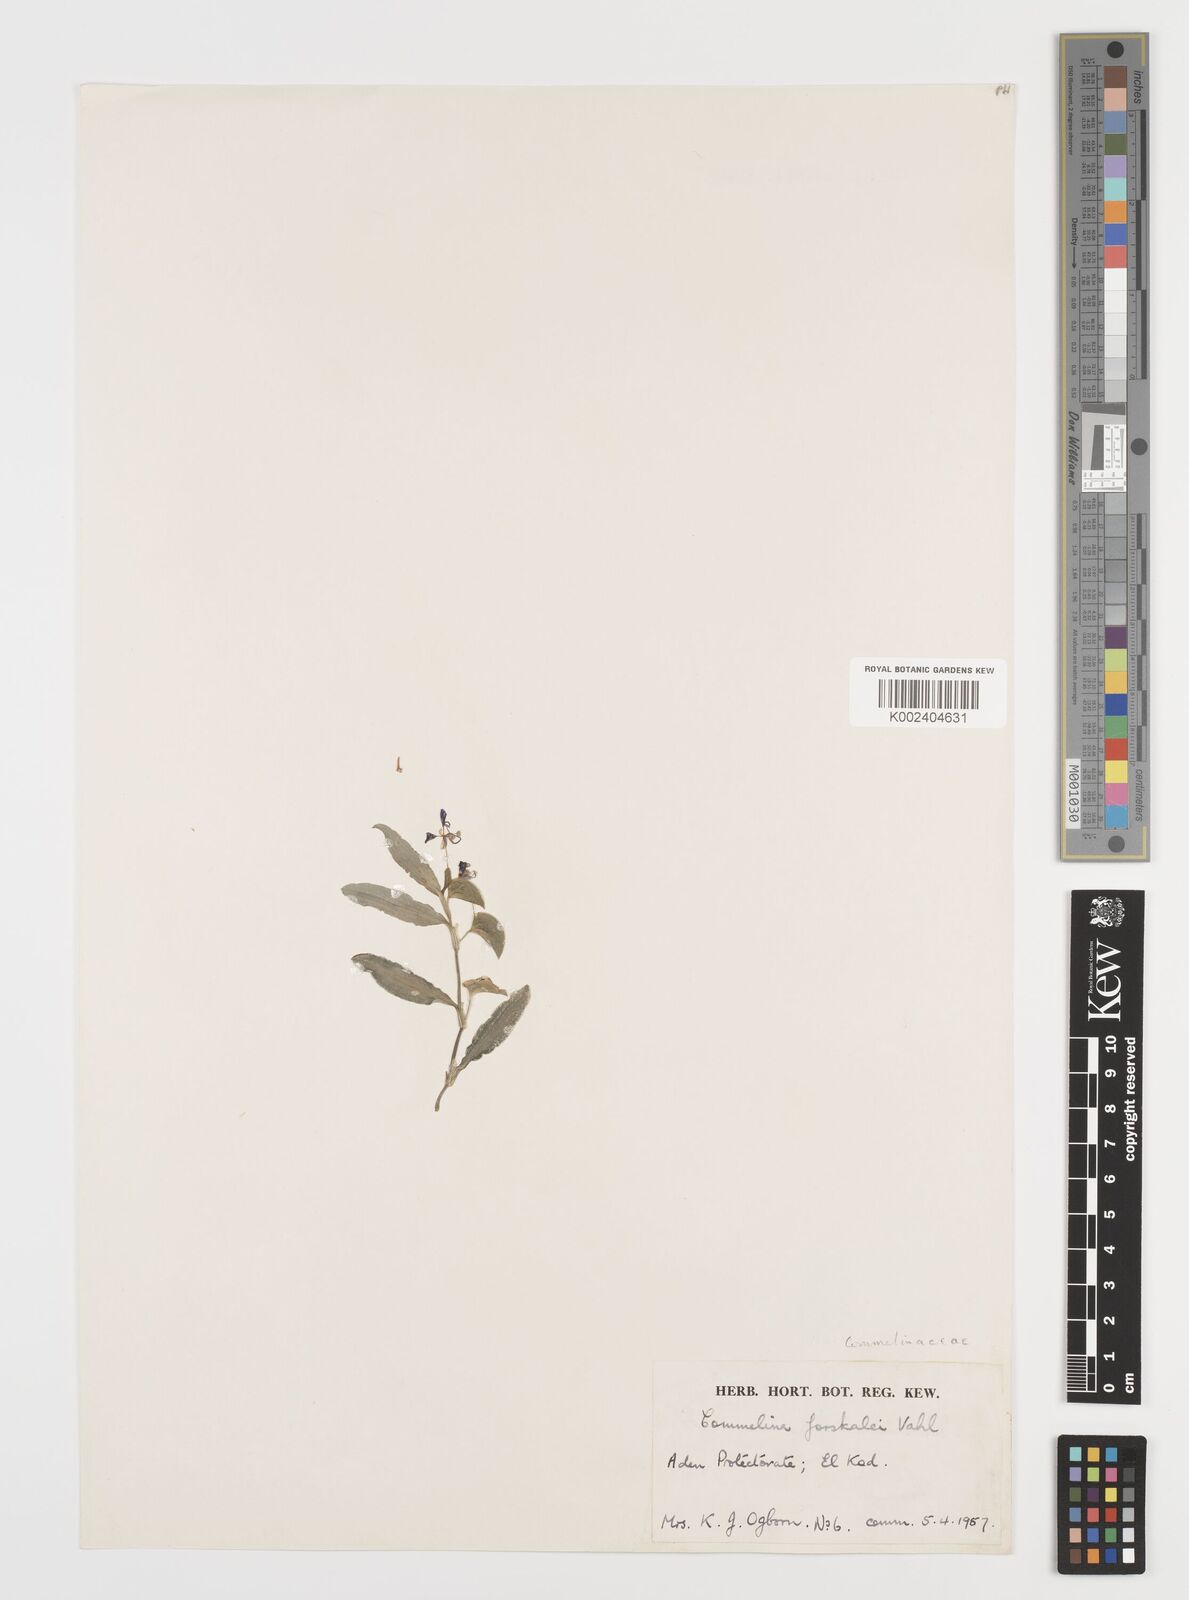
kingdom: Plantae
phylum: Tracheophyta
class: Liliopsida
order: Commelinales
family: Commelinaceae
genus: Commelina
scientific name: Commelina forskaolii
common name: Rat's ear
